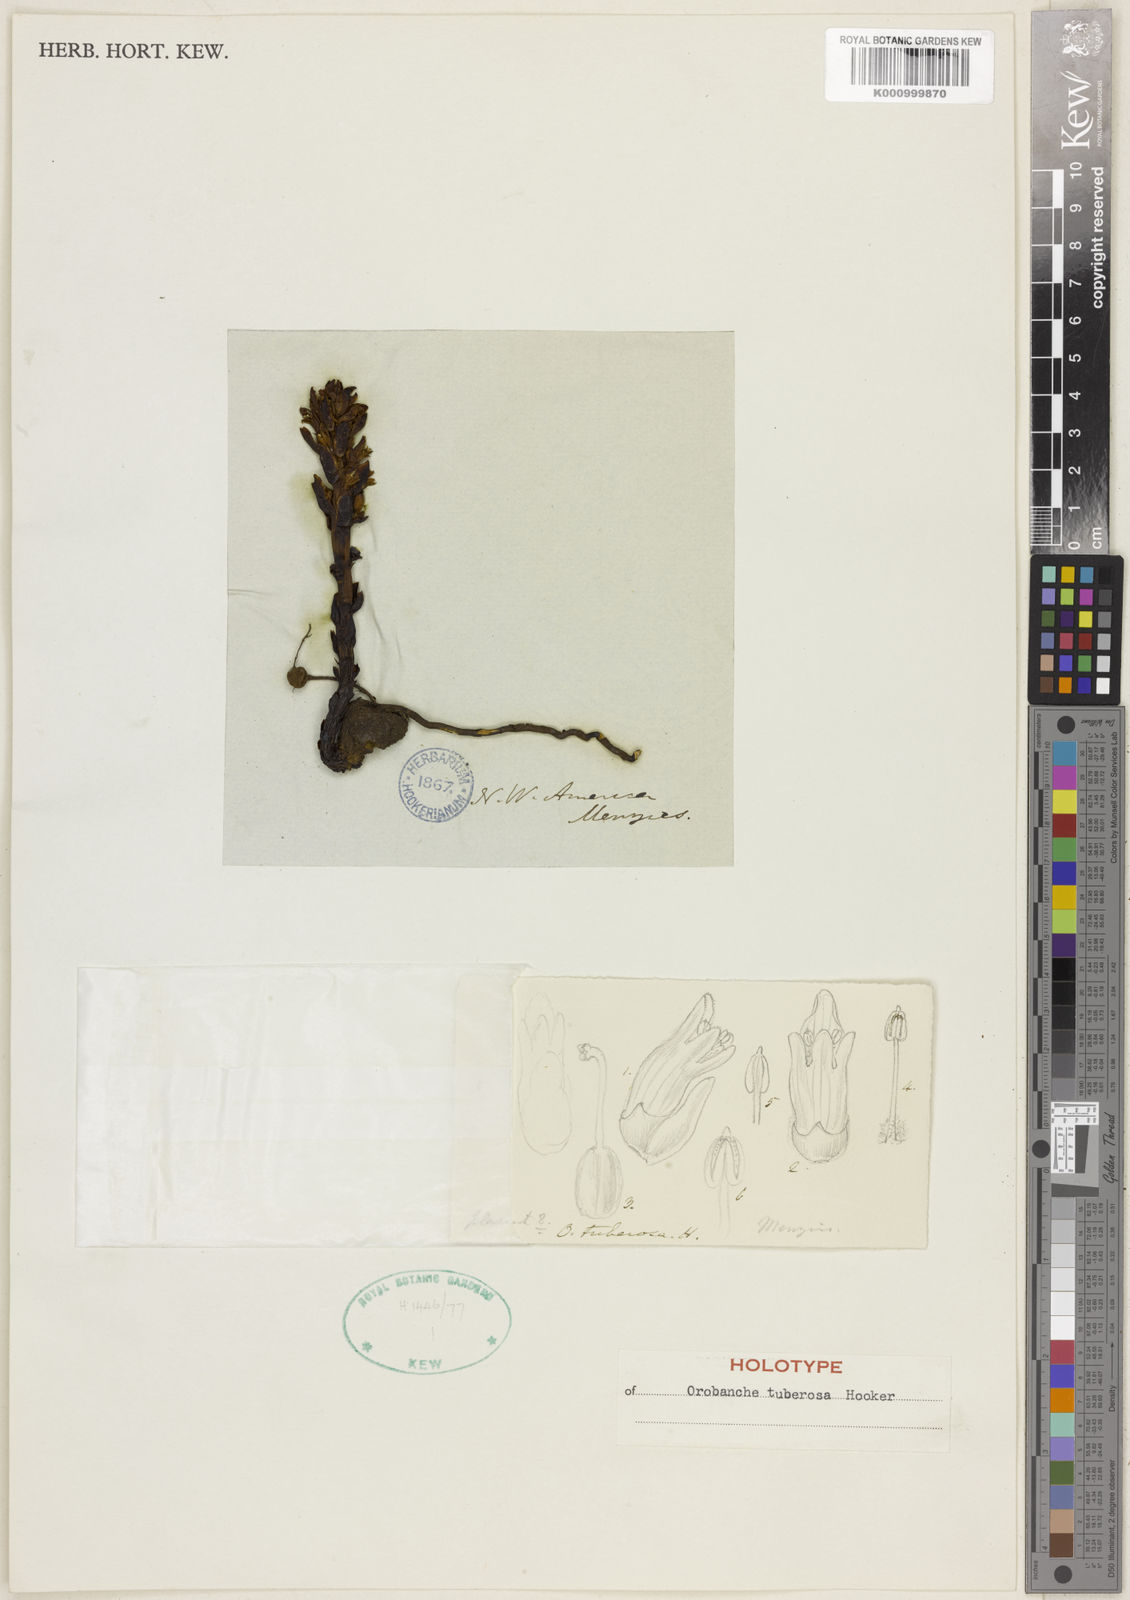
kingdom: Plantae
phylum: Tracheophyta
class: Magnoliopsida
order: Lamiales
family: Orobanchaceae
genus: Aphyllon
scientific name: Aphyllon tuberosum
